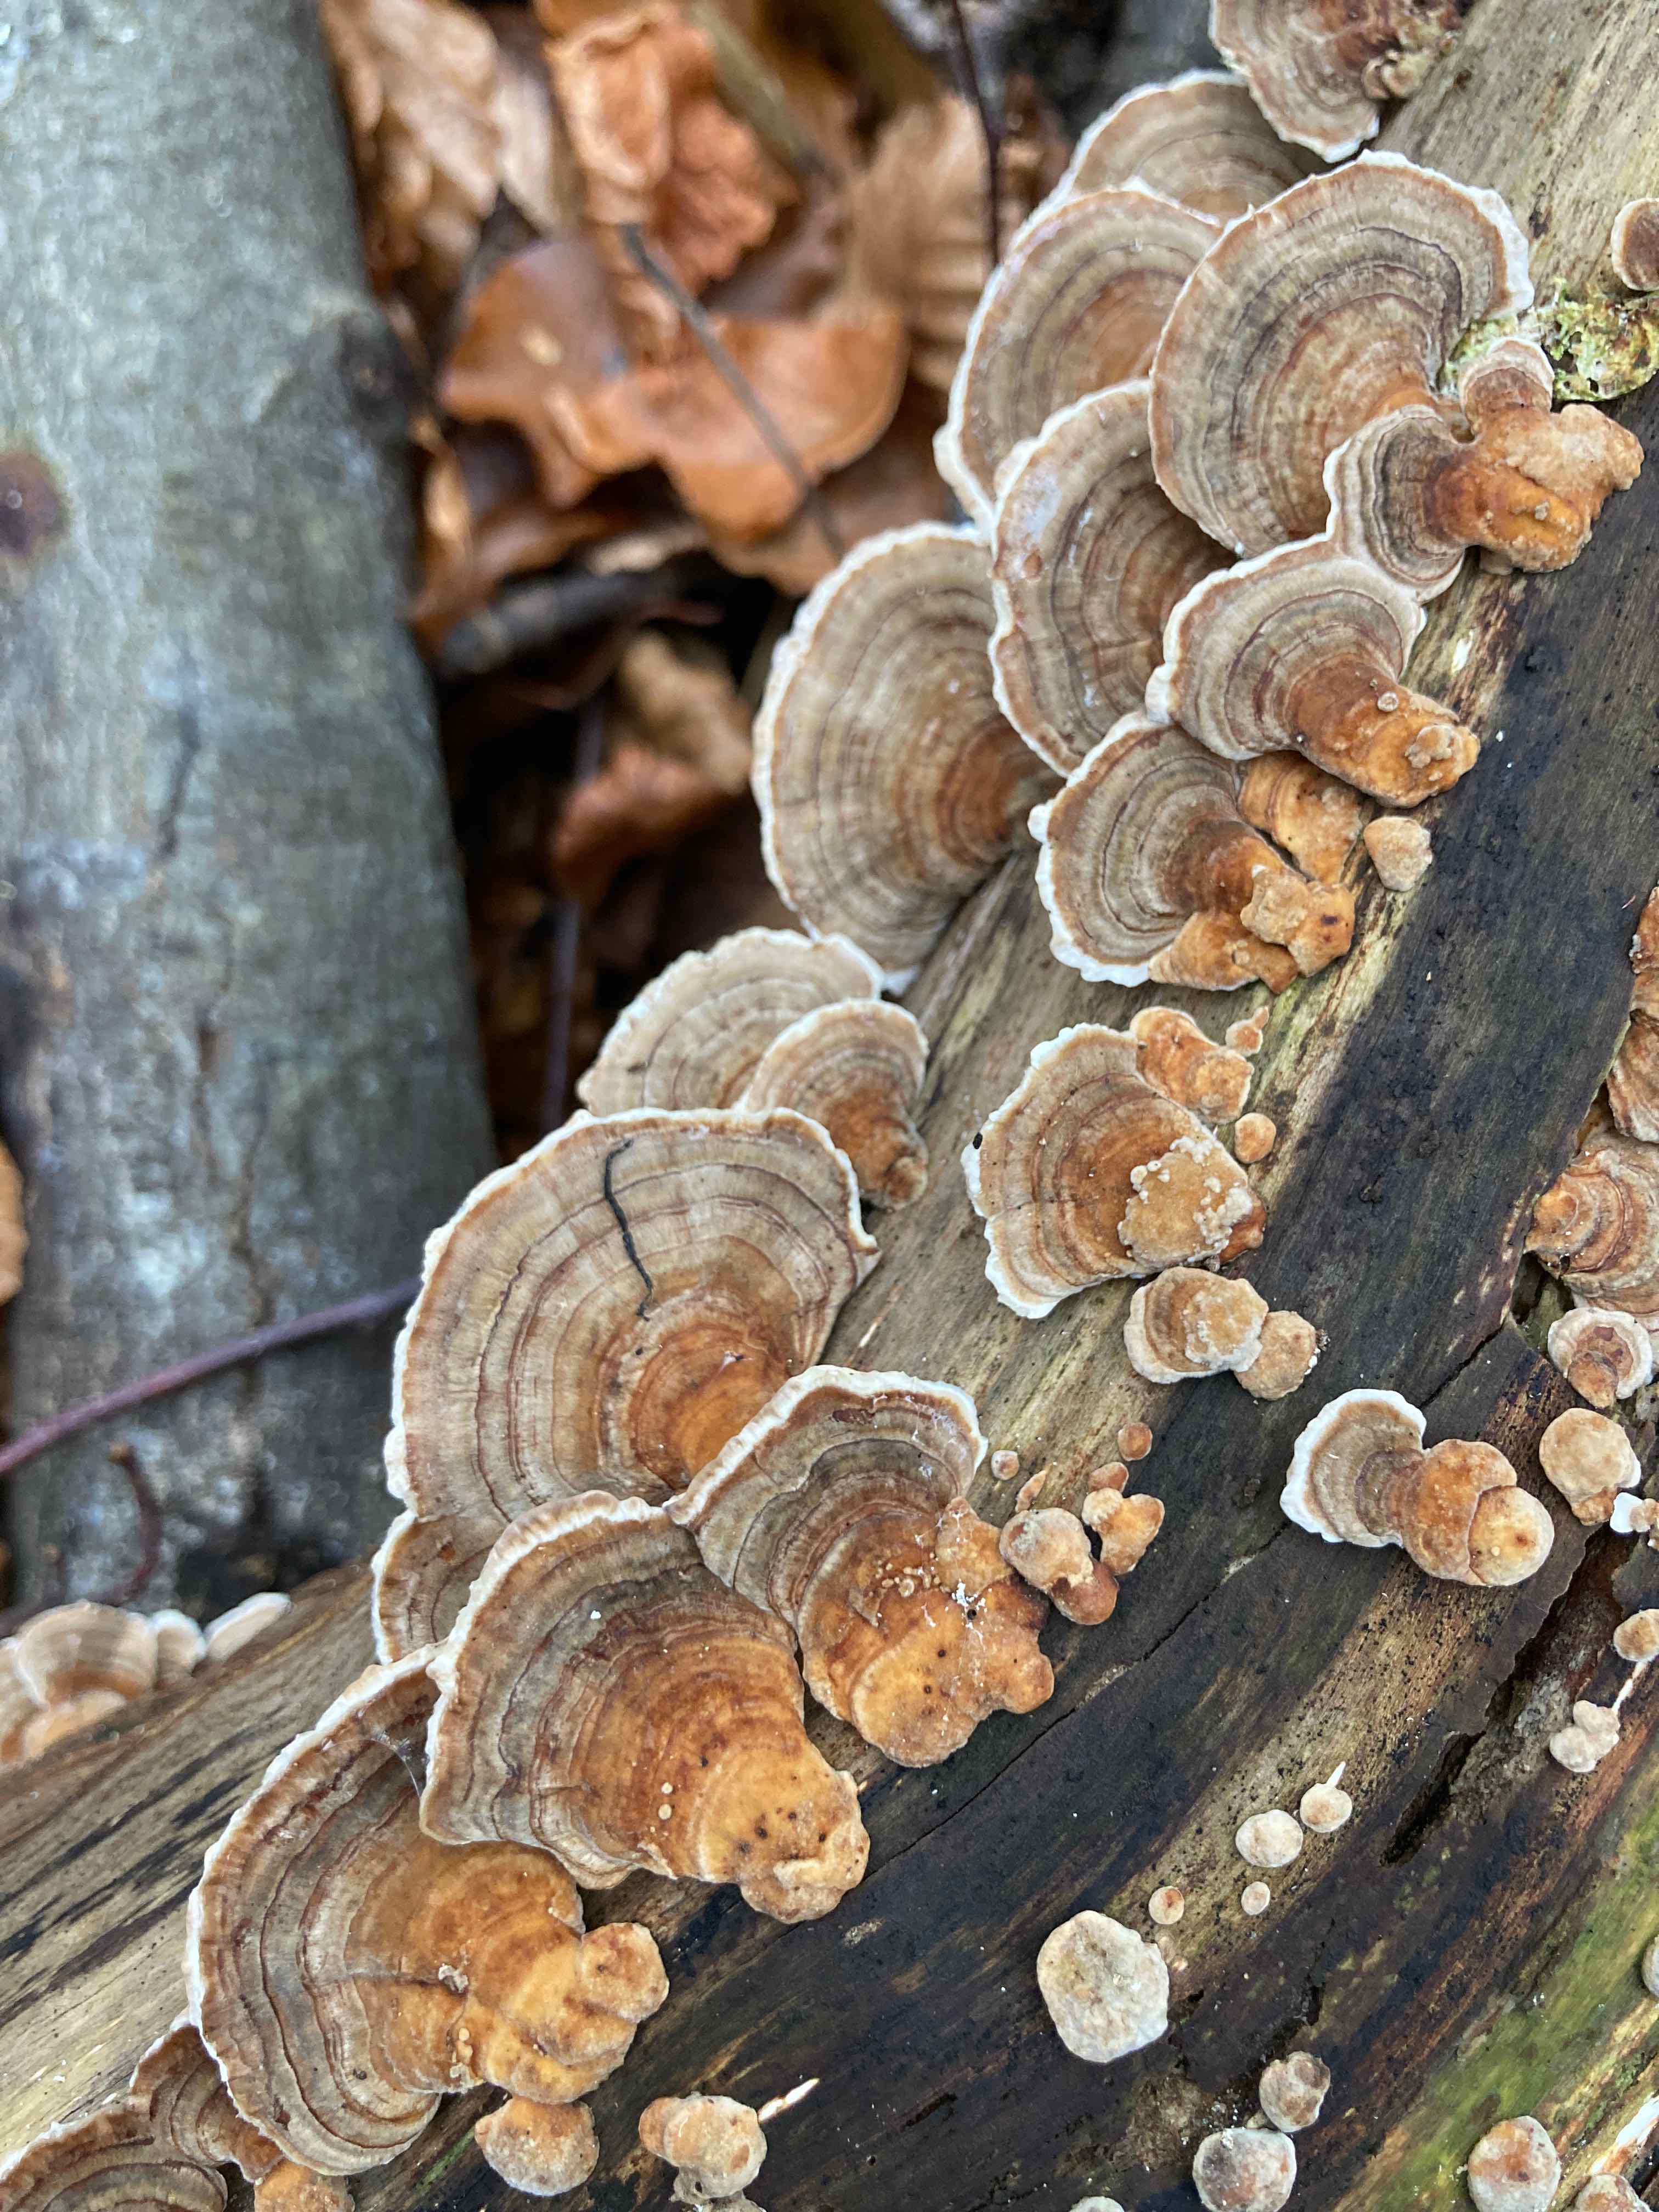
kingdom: Fungi
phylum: Basidiomycota
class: Agaricomycetes
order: Polyporales
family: Polyporaceae
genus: Trametes
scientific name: Trametes versicolor
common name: broget læderporesvamp
